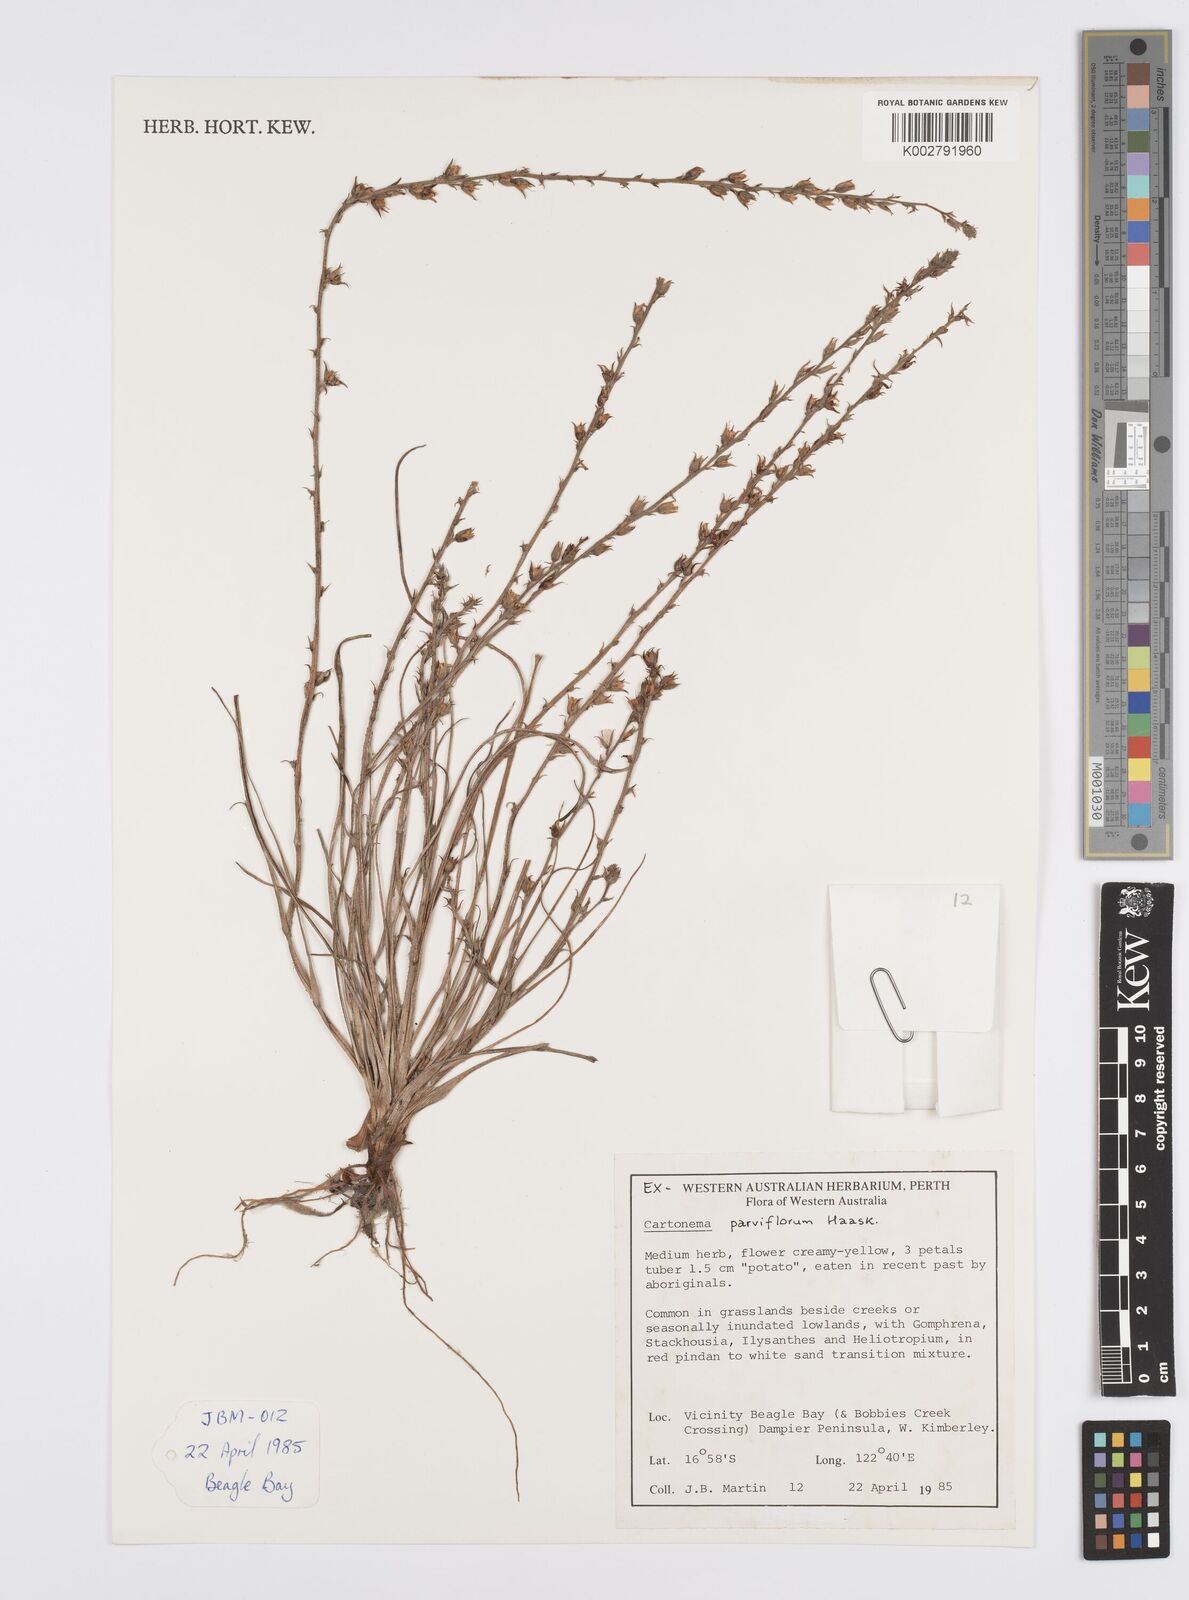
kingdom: Plantae
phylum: Tracheophyta
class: Liliopsida
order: Commelinales
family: Commelinaceae
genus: Cartonema
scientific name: Cartonema parviflorum
